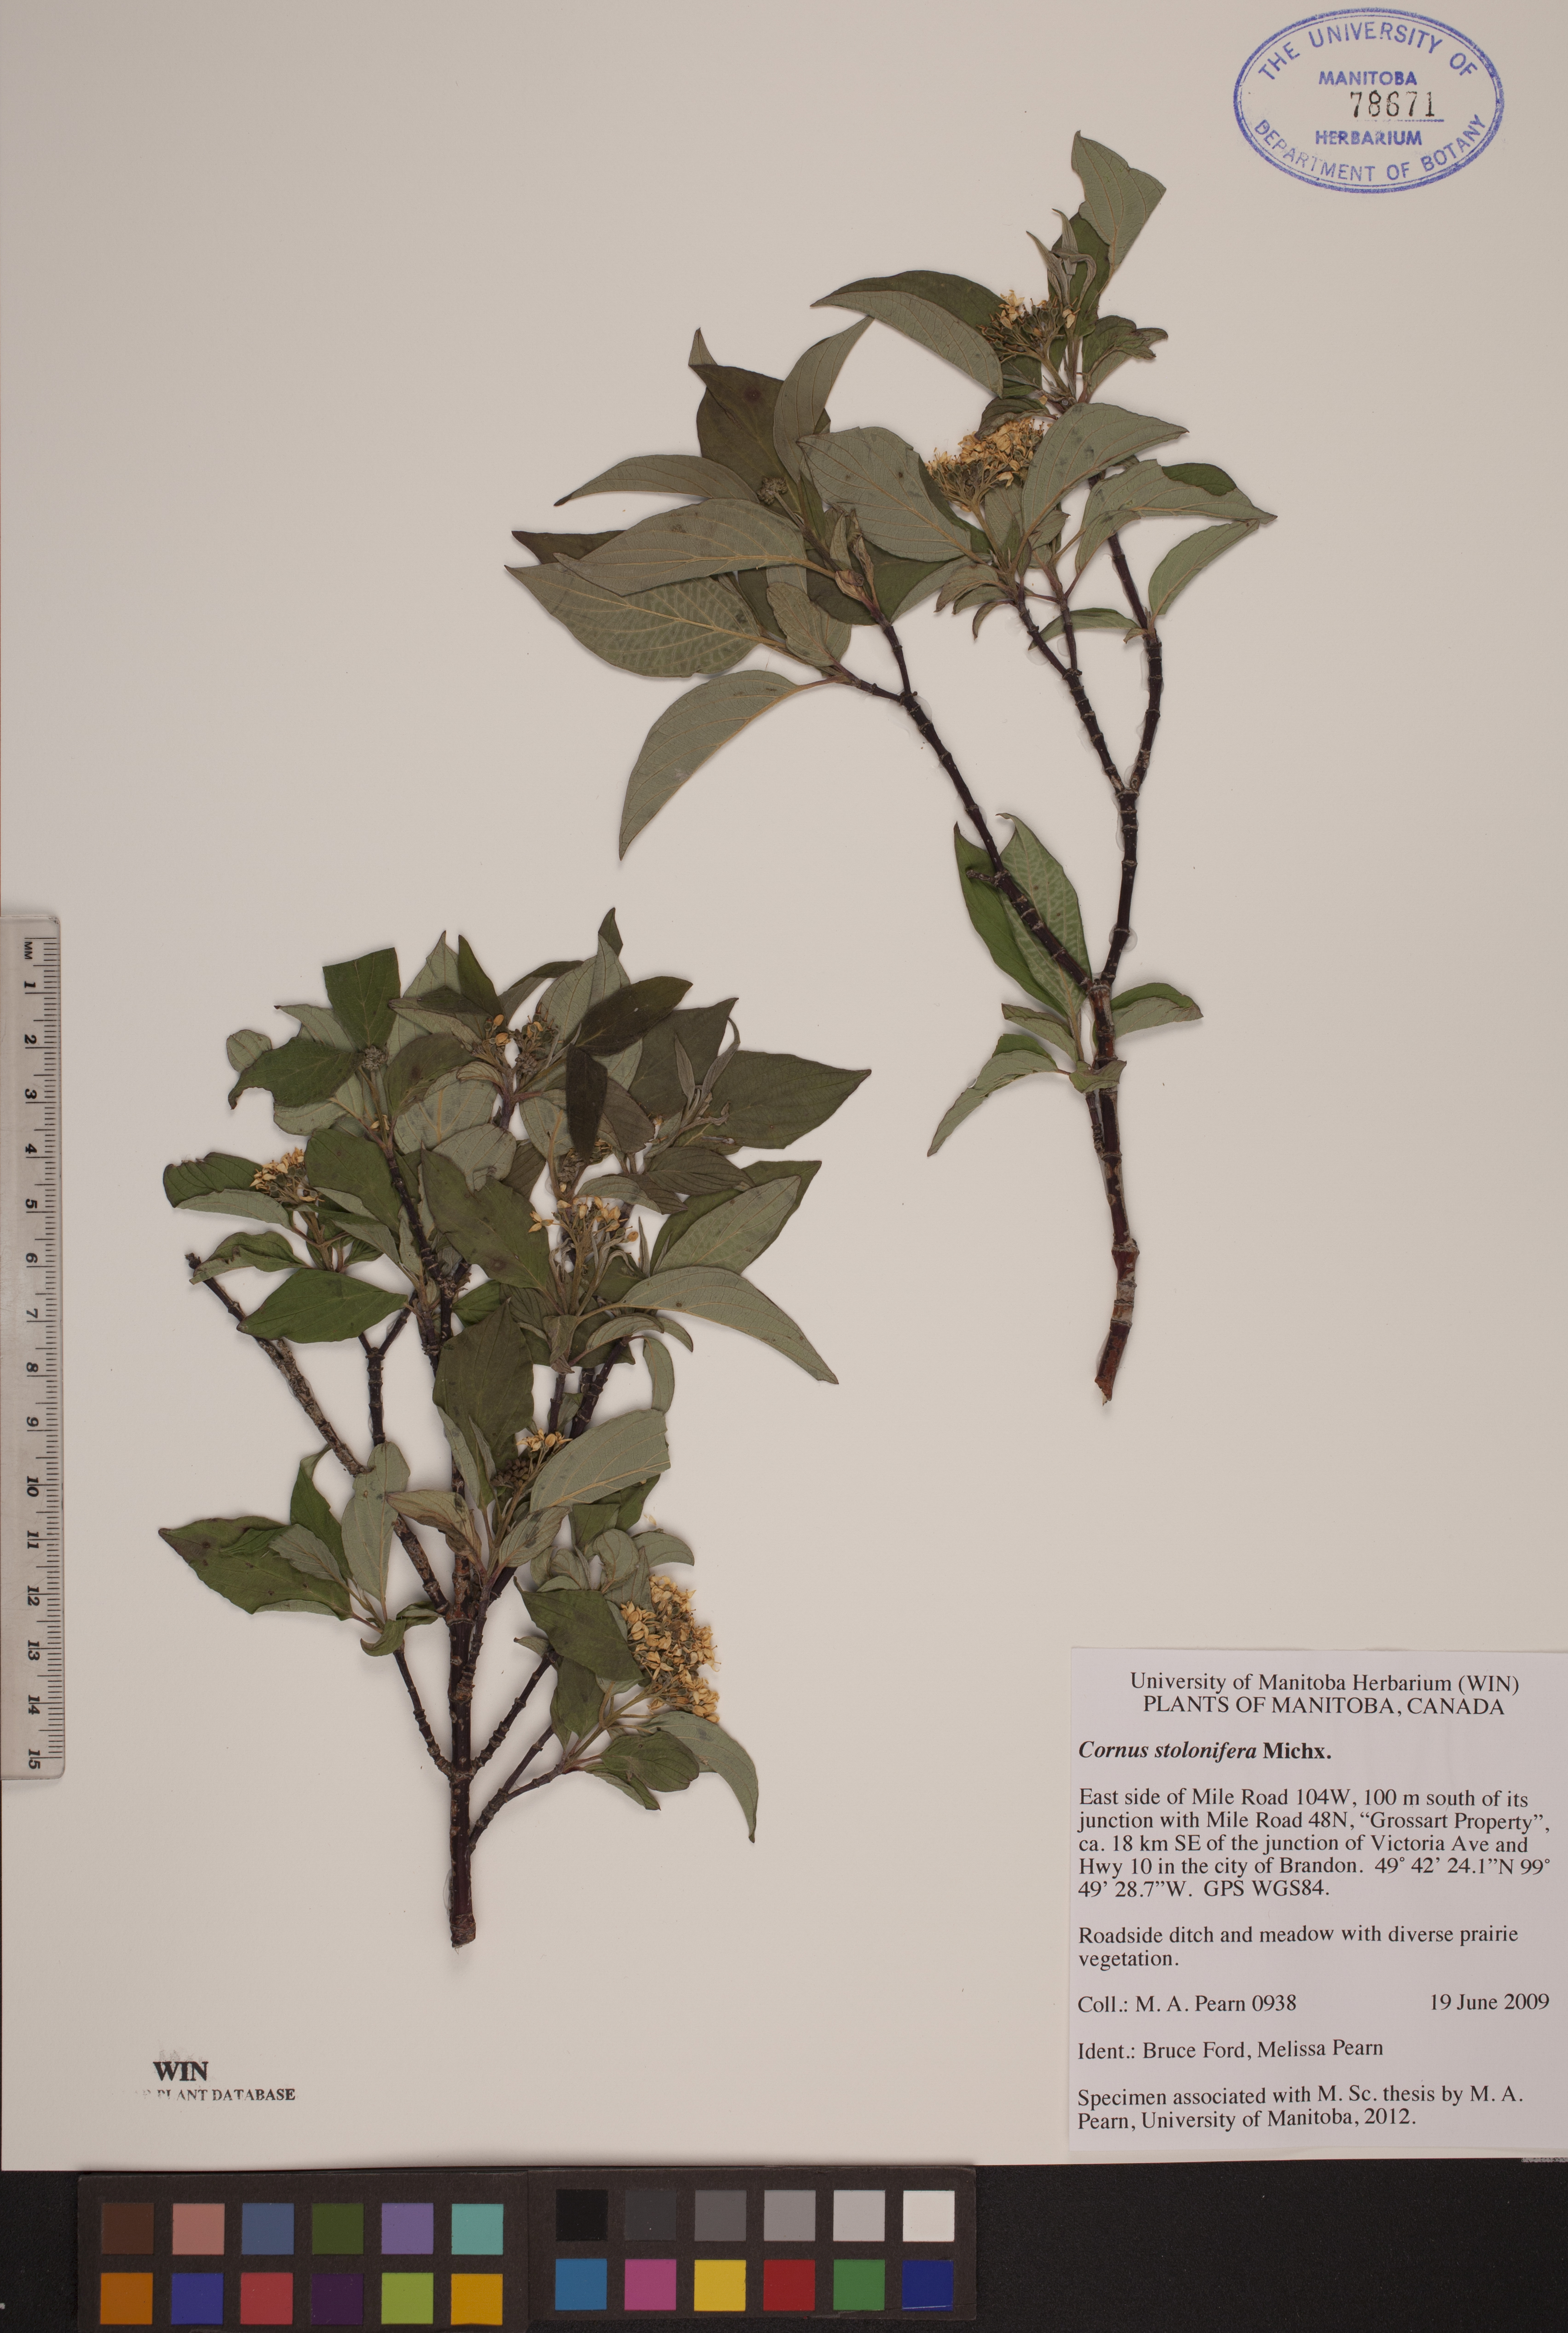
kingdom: Plantae
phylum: Tracheophyta
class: Magnoliopsida
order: Cornales
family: Cornaceae
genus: Cornus
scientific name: Cornus sericea
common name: Red-osier dogwood
